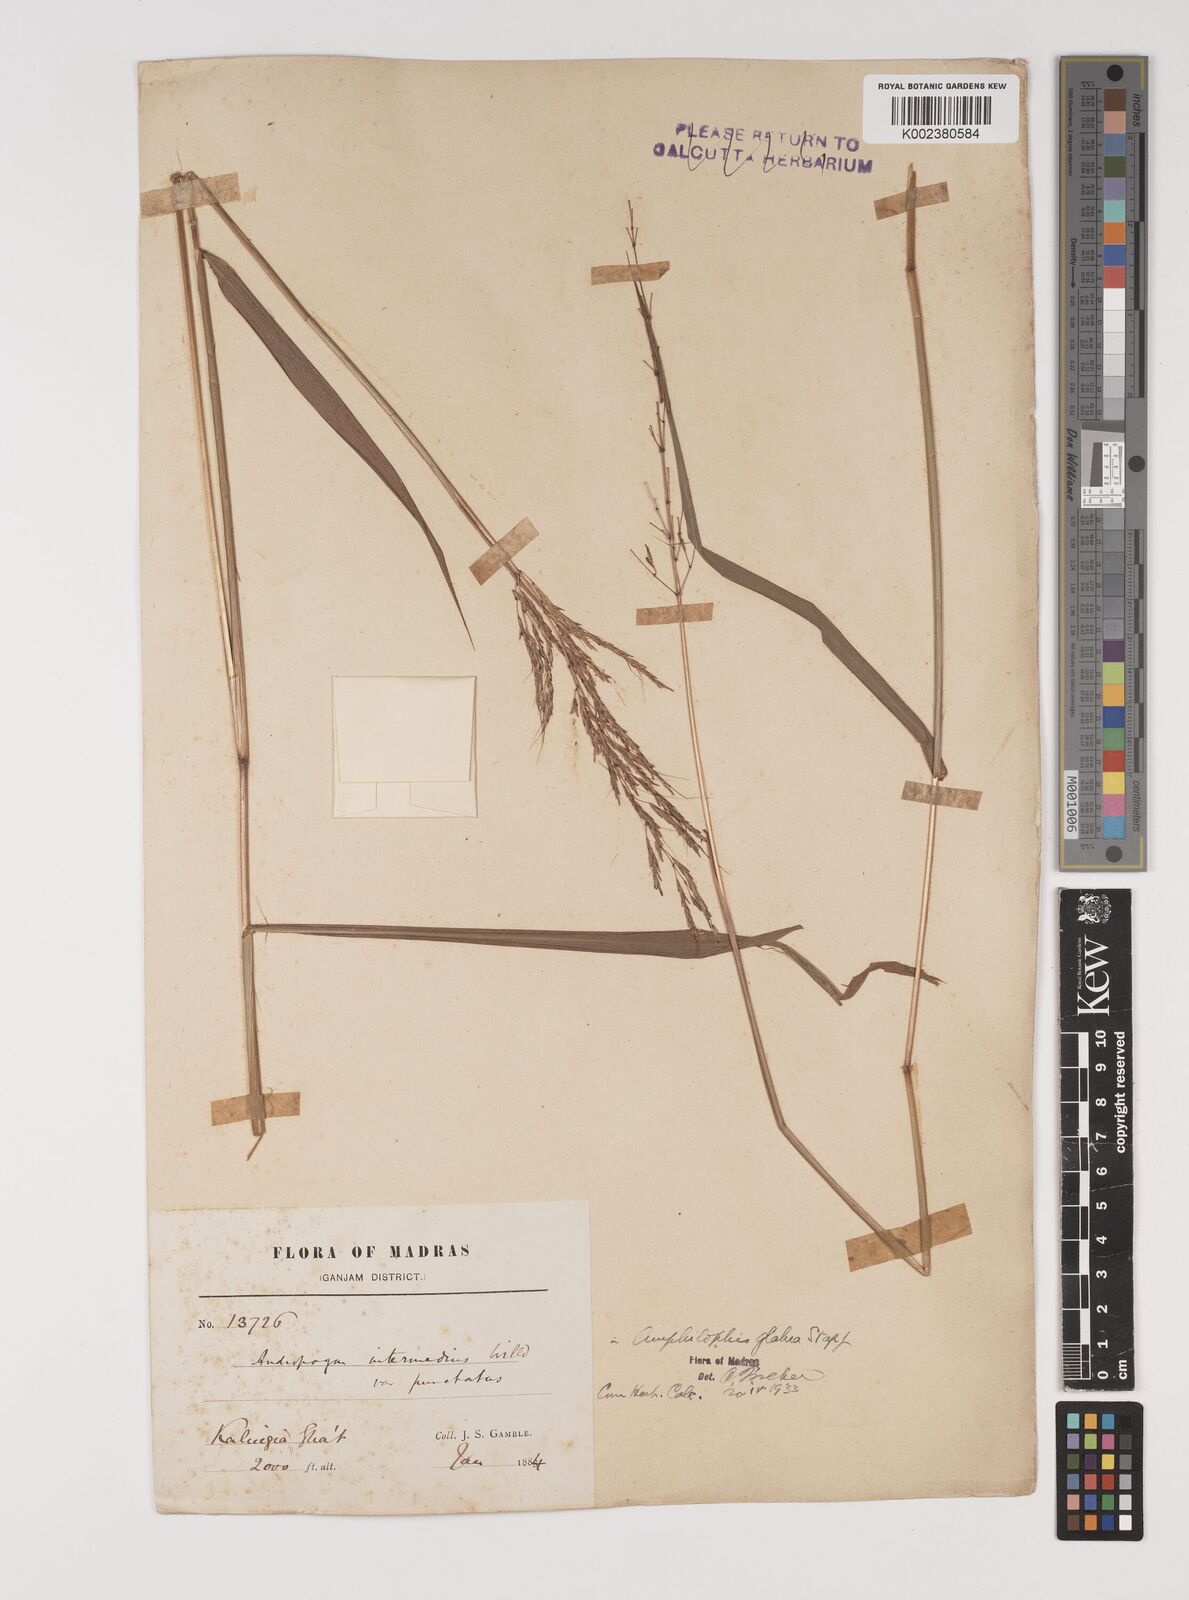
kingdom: Plantae
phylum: Tracheophyta
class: Liliopsida
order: Poales
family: Poaceae
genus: Bothriochloa
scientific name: Bothriochloa bladhii
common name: Caucasian bluestem
